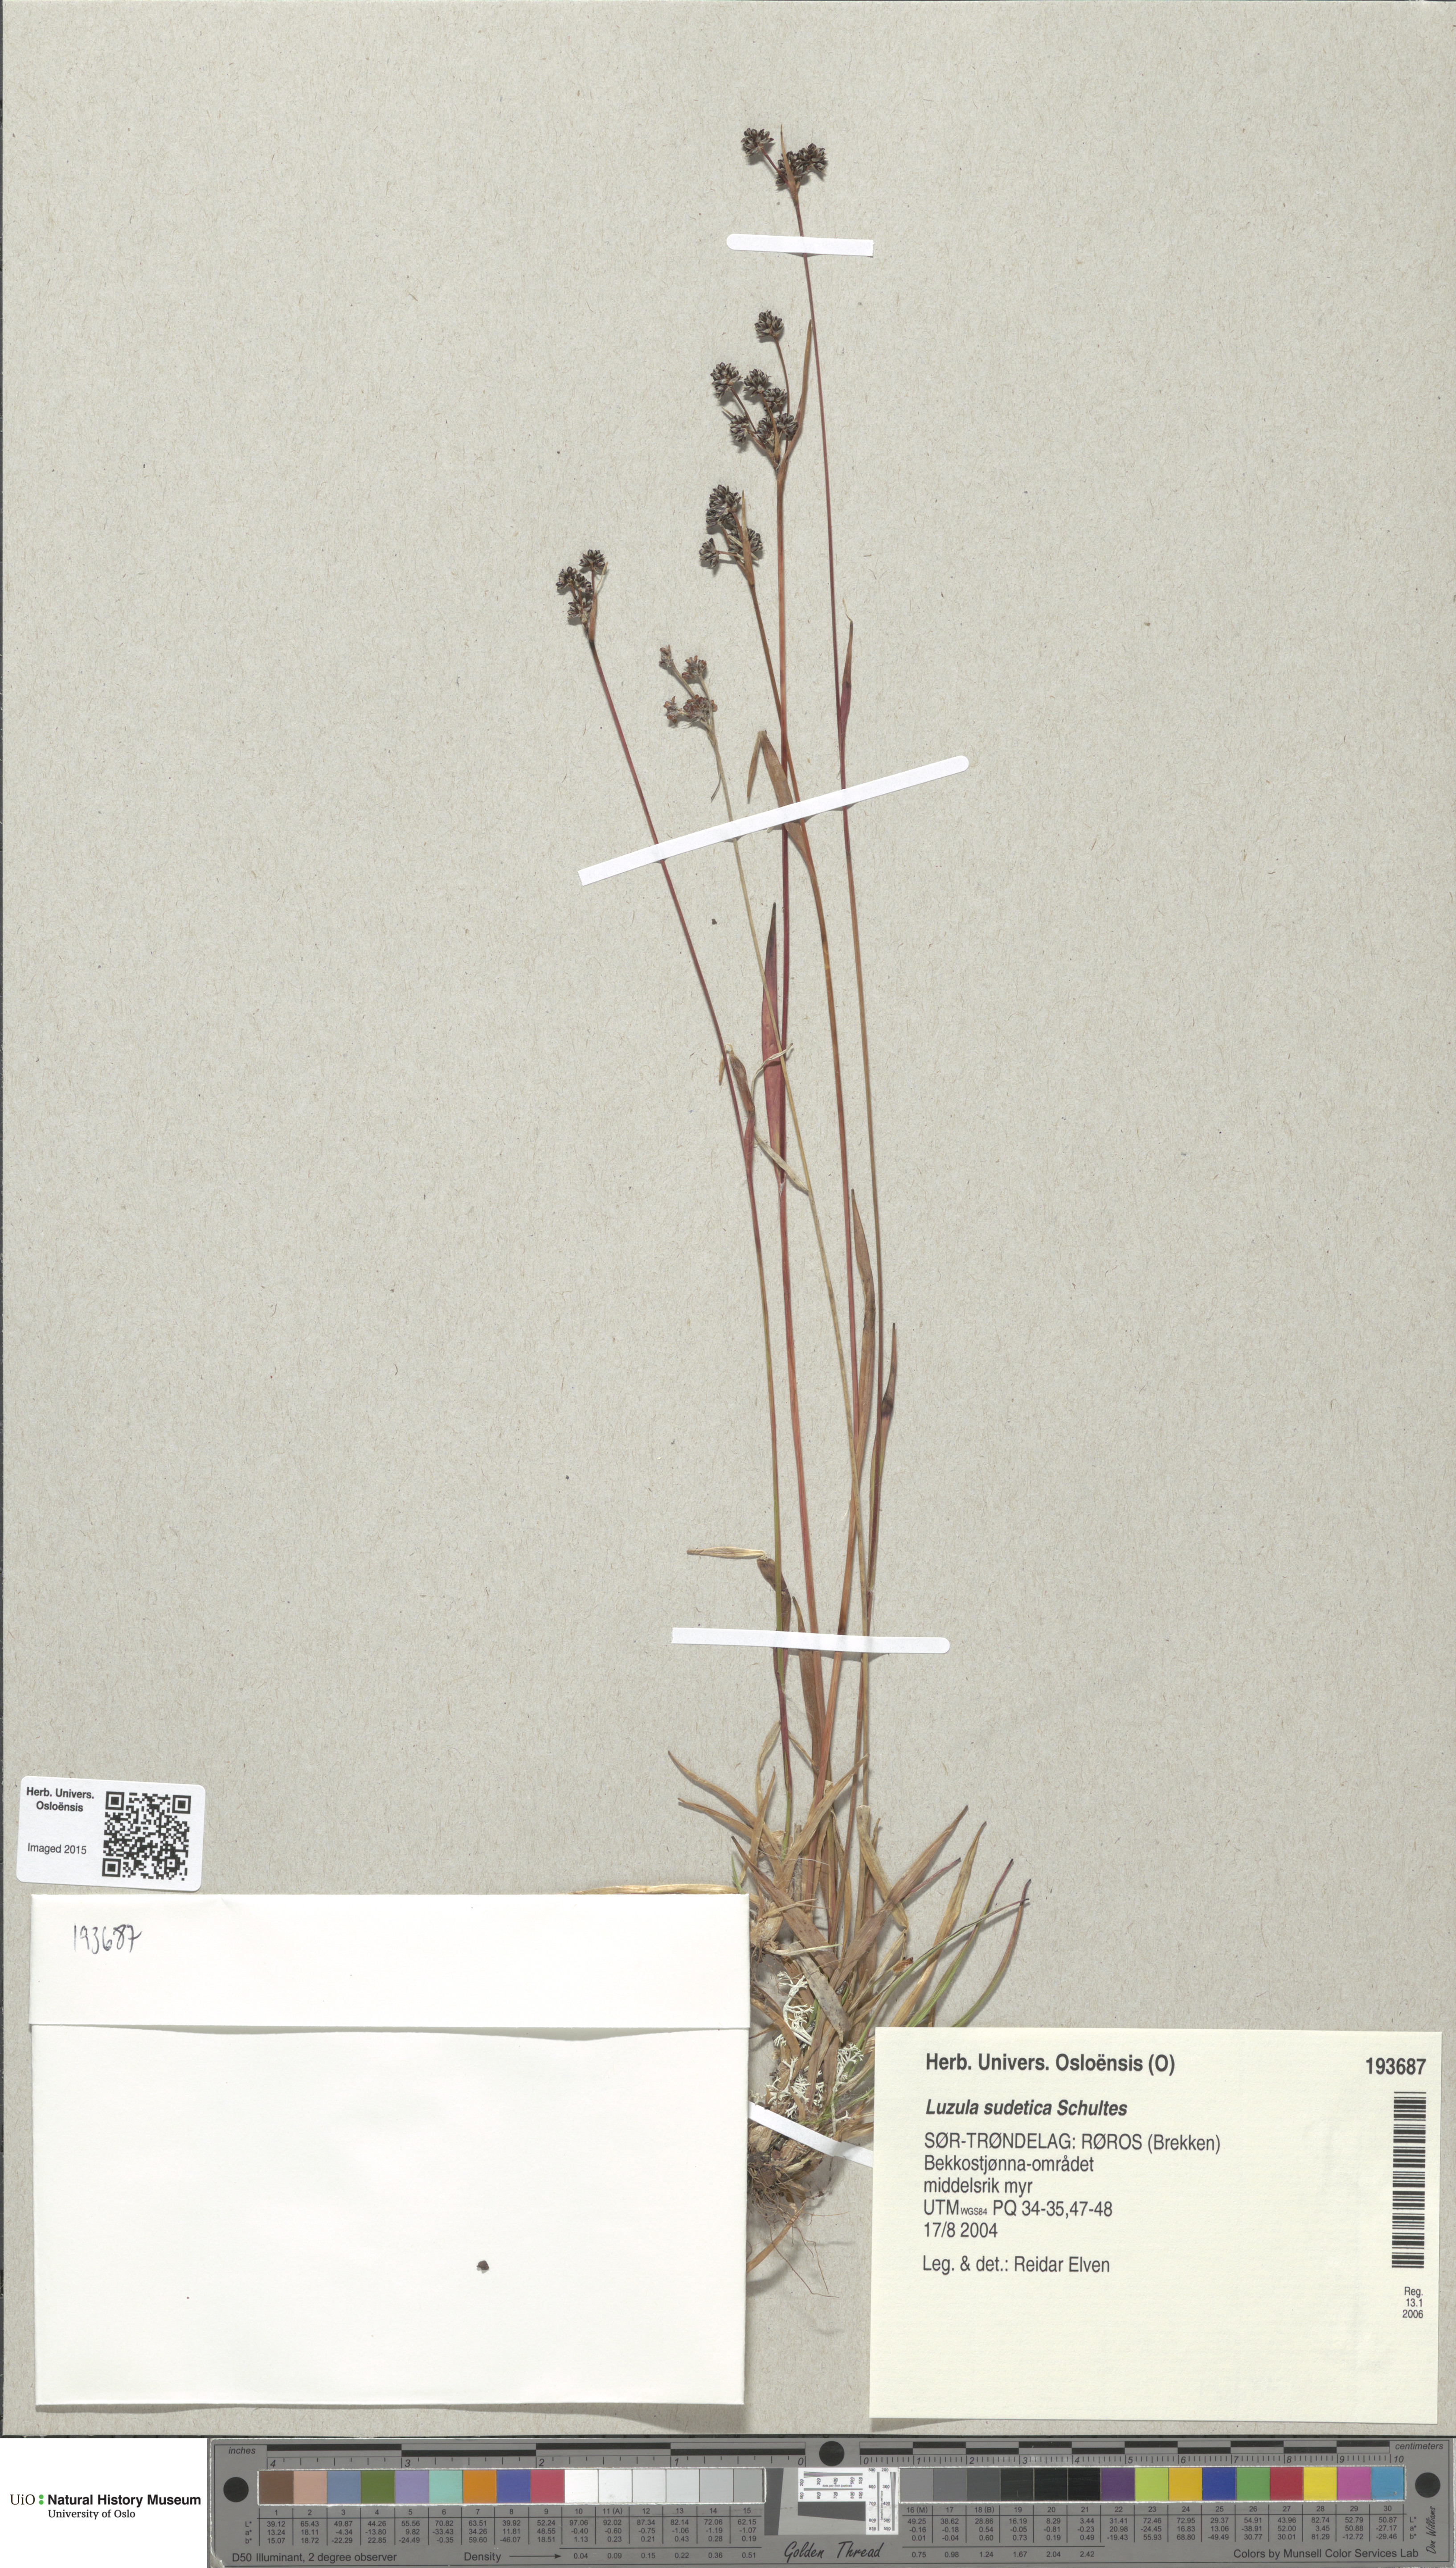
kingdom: Plantae
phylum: Tracheophyta
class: Liliopsida
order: Poales
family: Juncaceae
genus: Luzula
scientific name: Luzula sudetica
